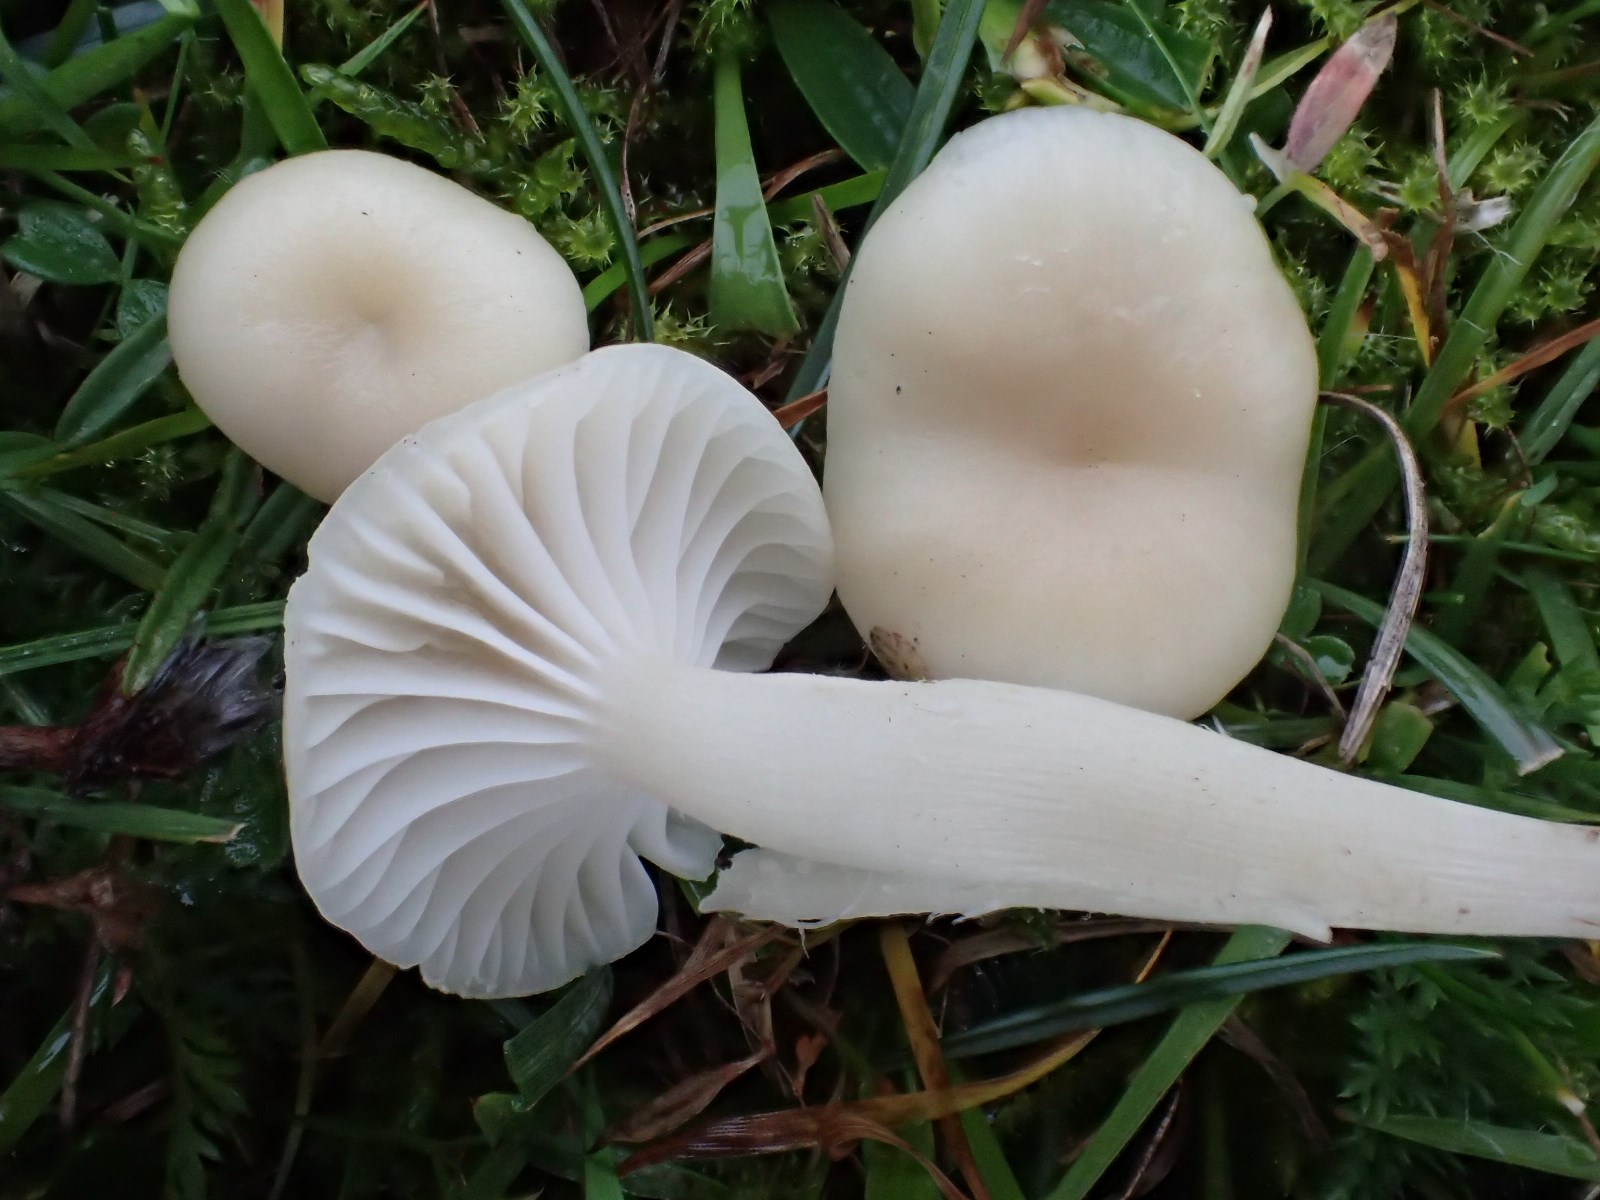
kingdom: Fungi
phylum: Basidiomycota
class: Agaricomycetes
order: Agaricales
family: Hygrophoraceae
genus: Cuphophyllus
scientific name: Cuphophyllus russocoriaceus
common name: ruslæder-vokshat
